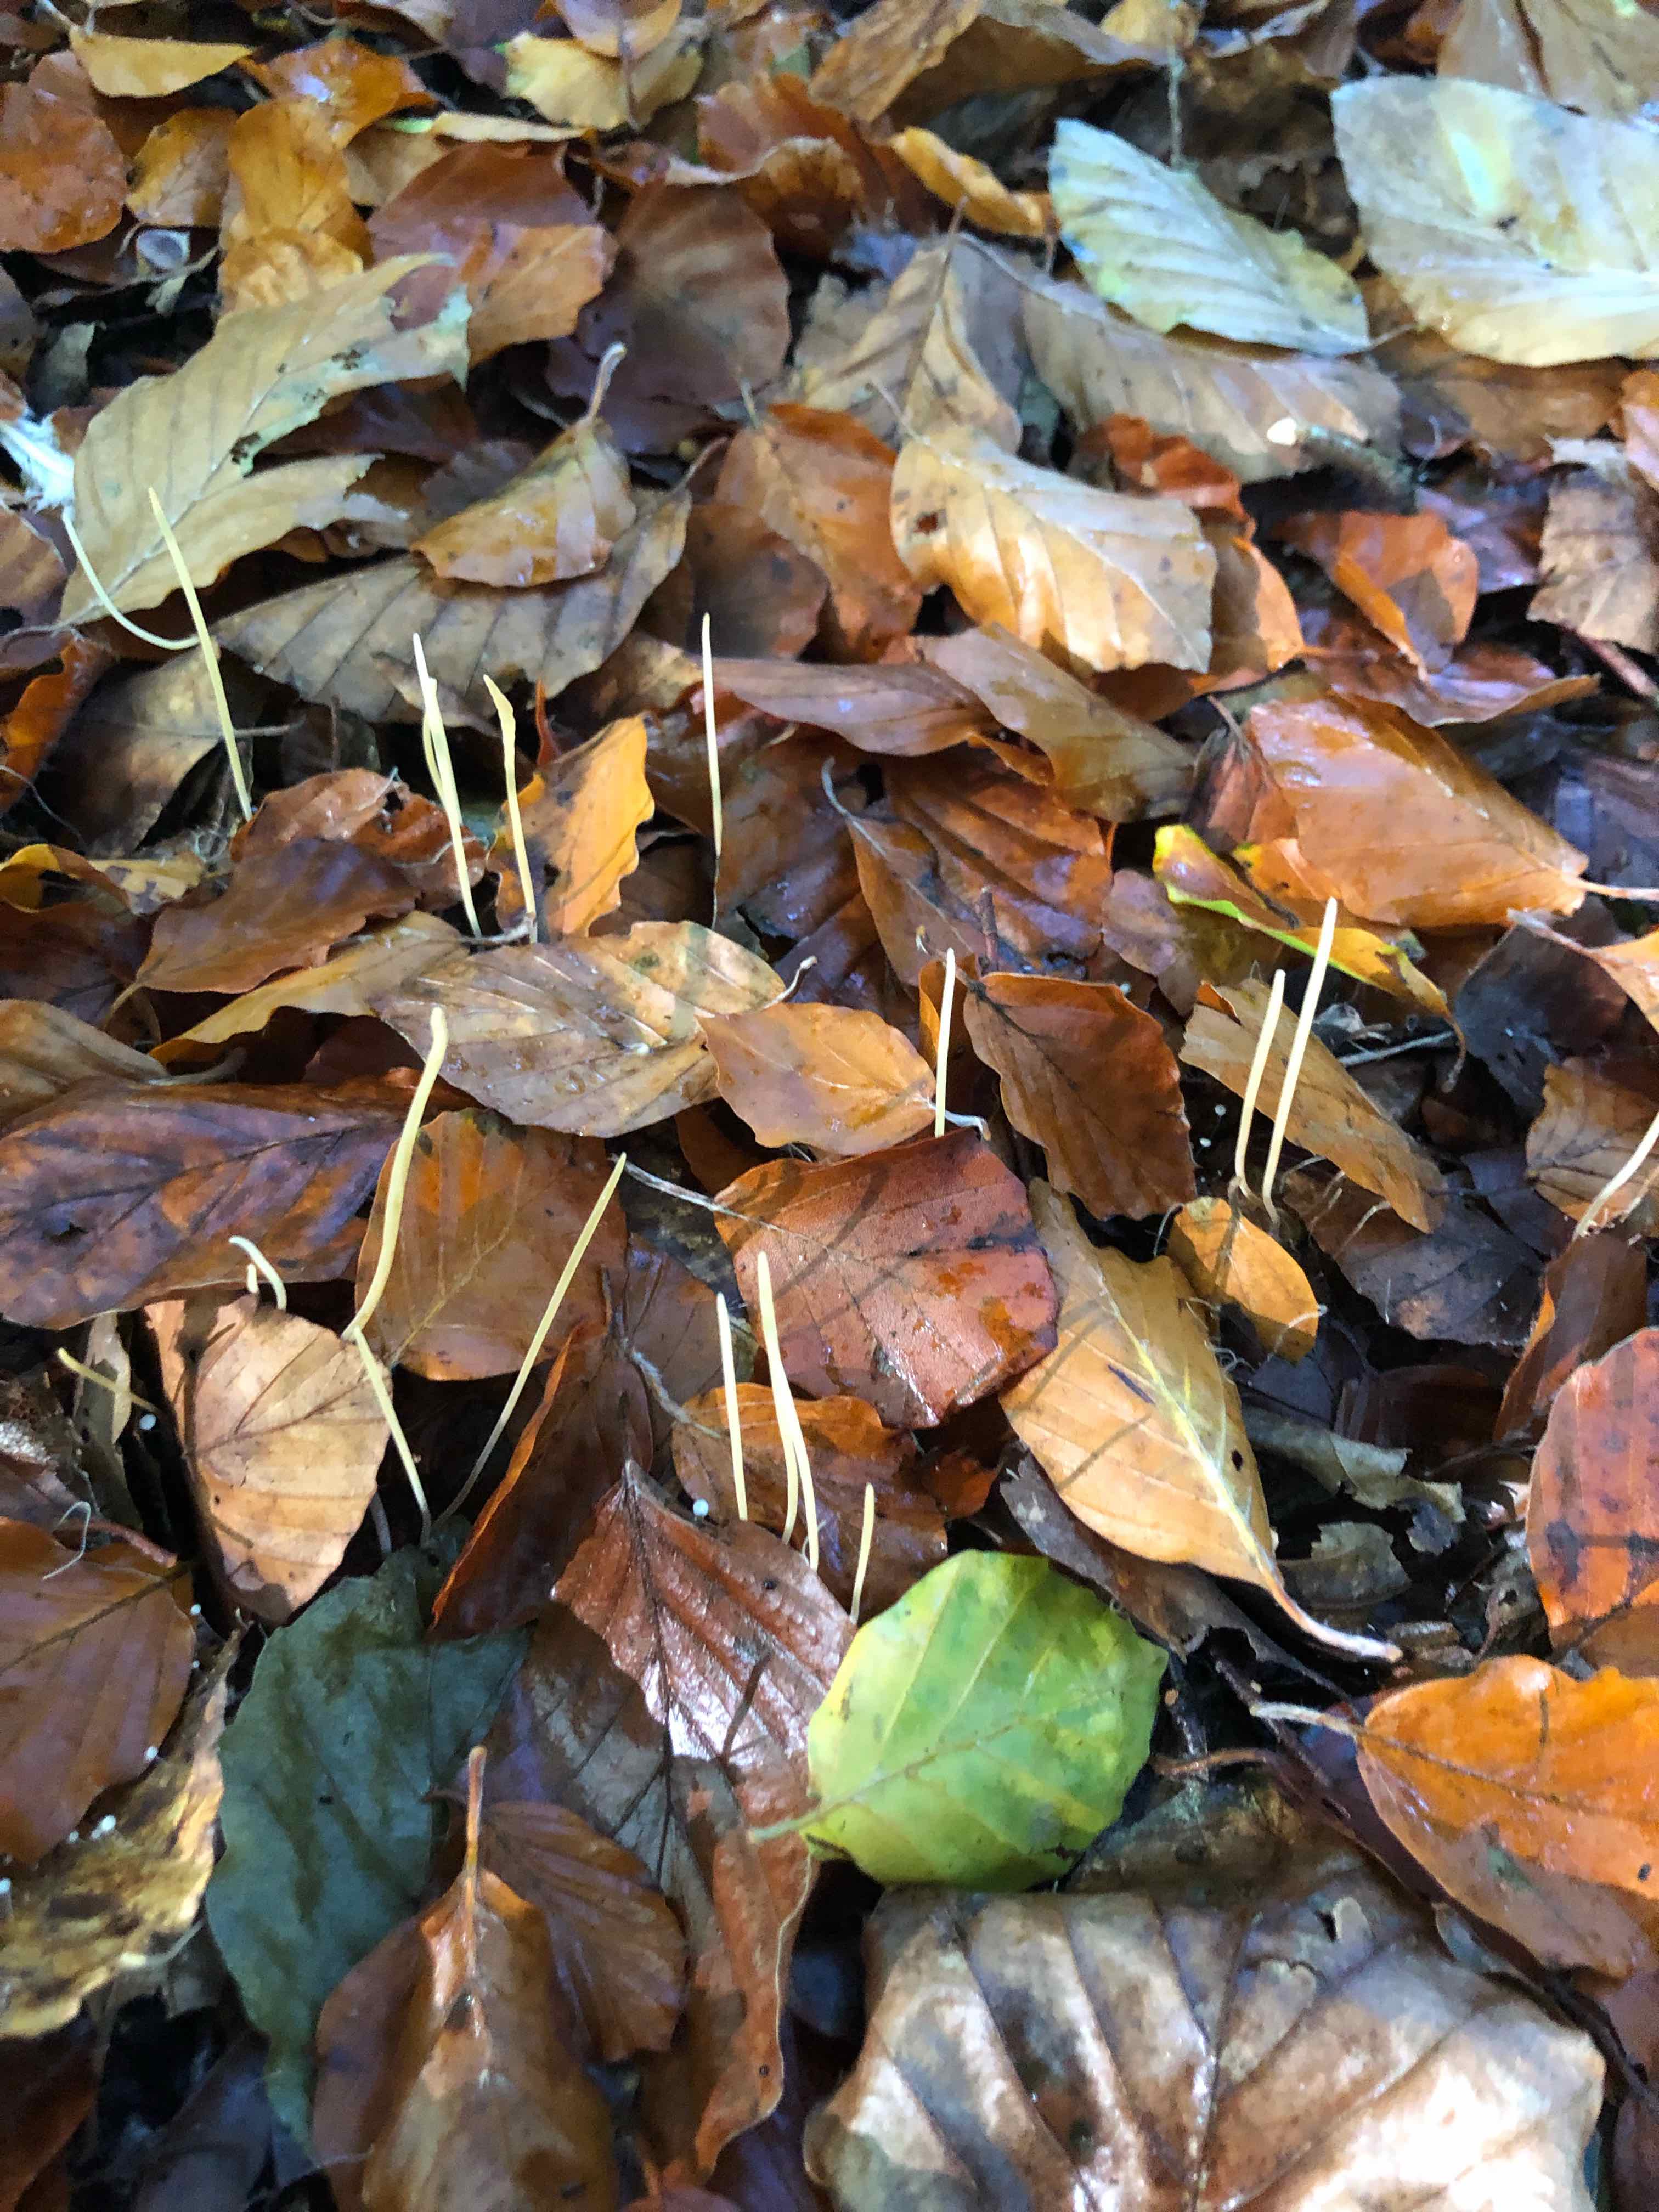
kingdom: Fungi
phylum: Basidiomycota
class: Agaricomycetes
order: Agaricales
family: Typhulaceae
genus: Typhula
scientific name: Typhula juncea
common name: trådagtig rørkølle
